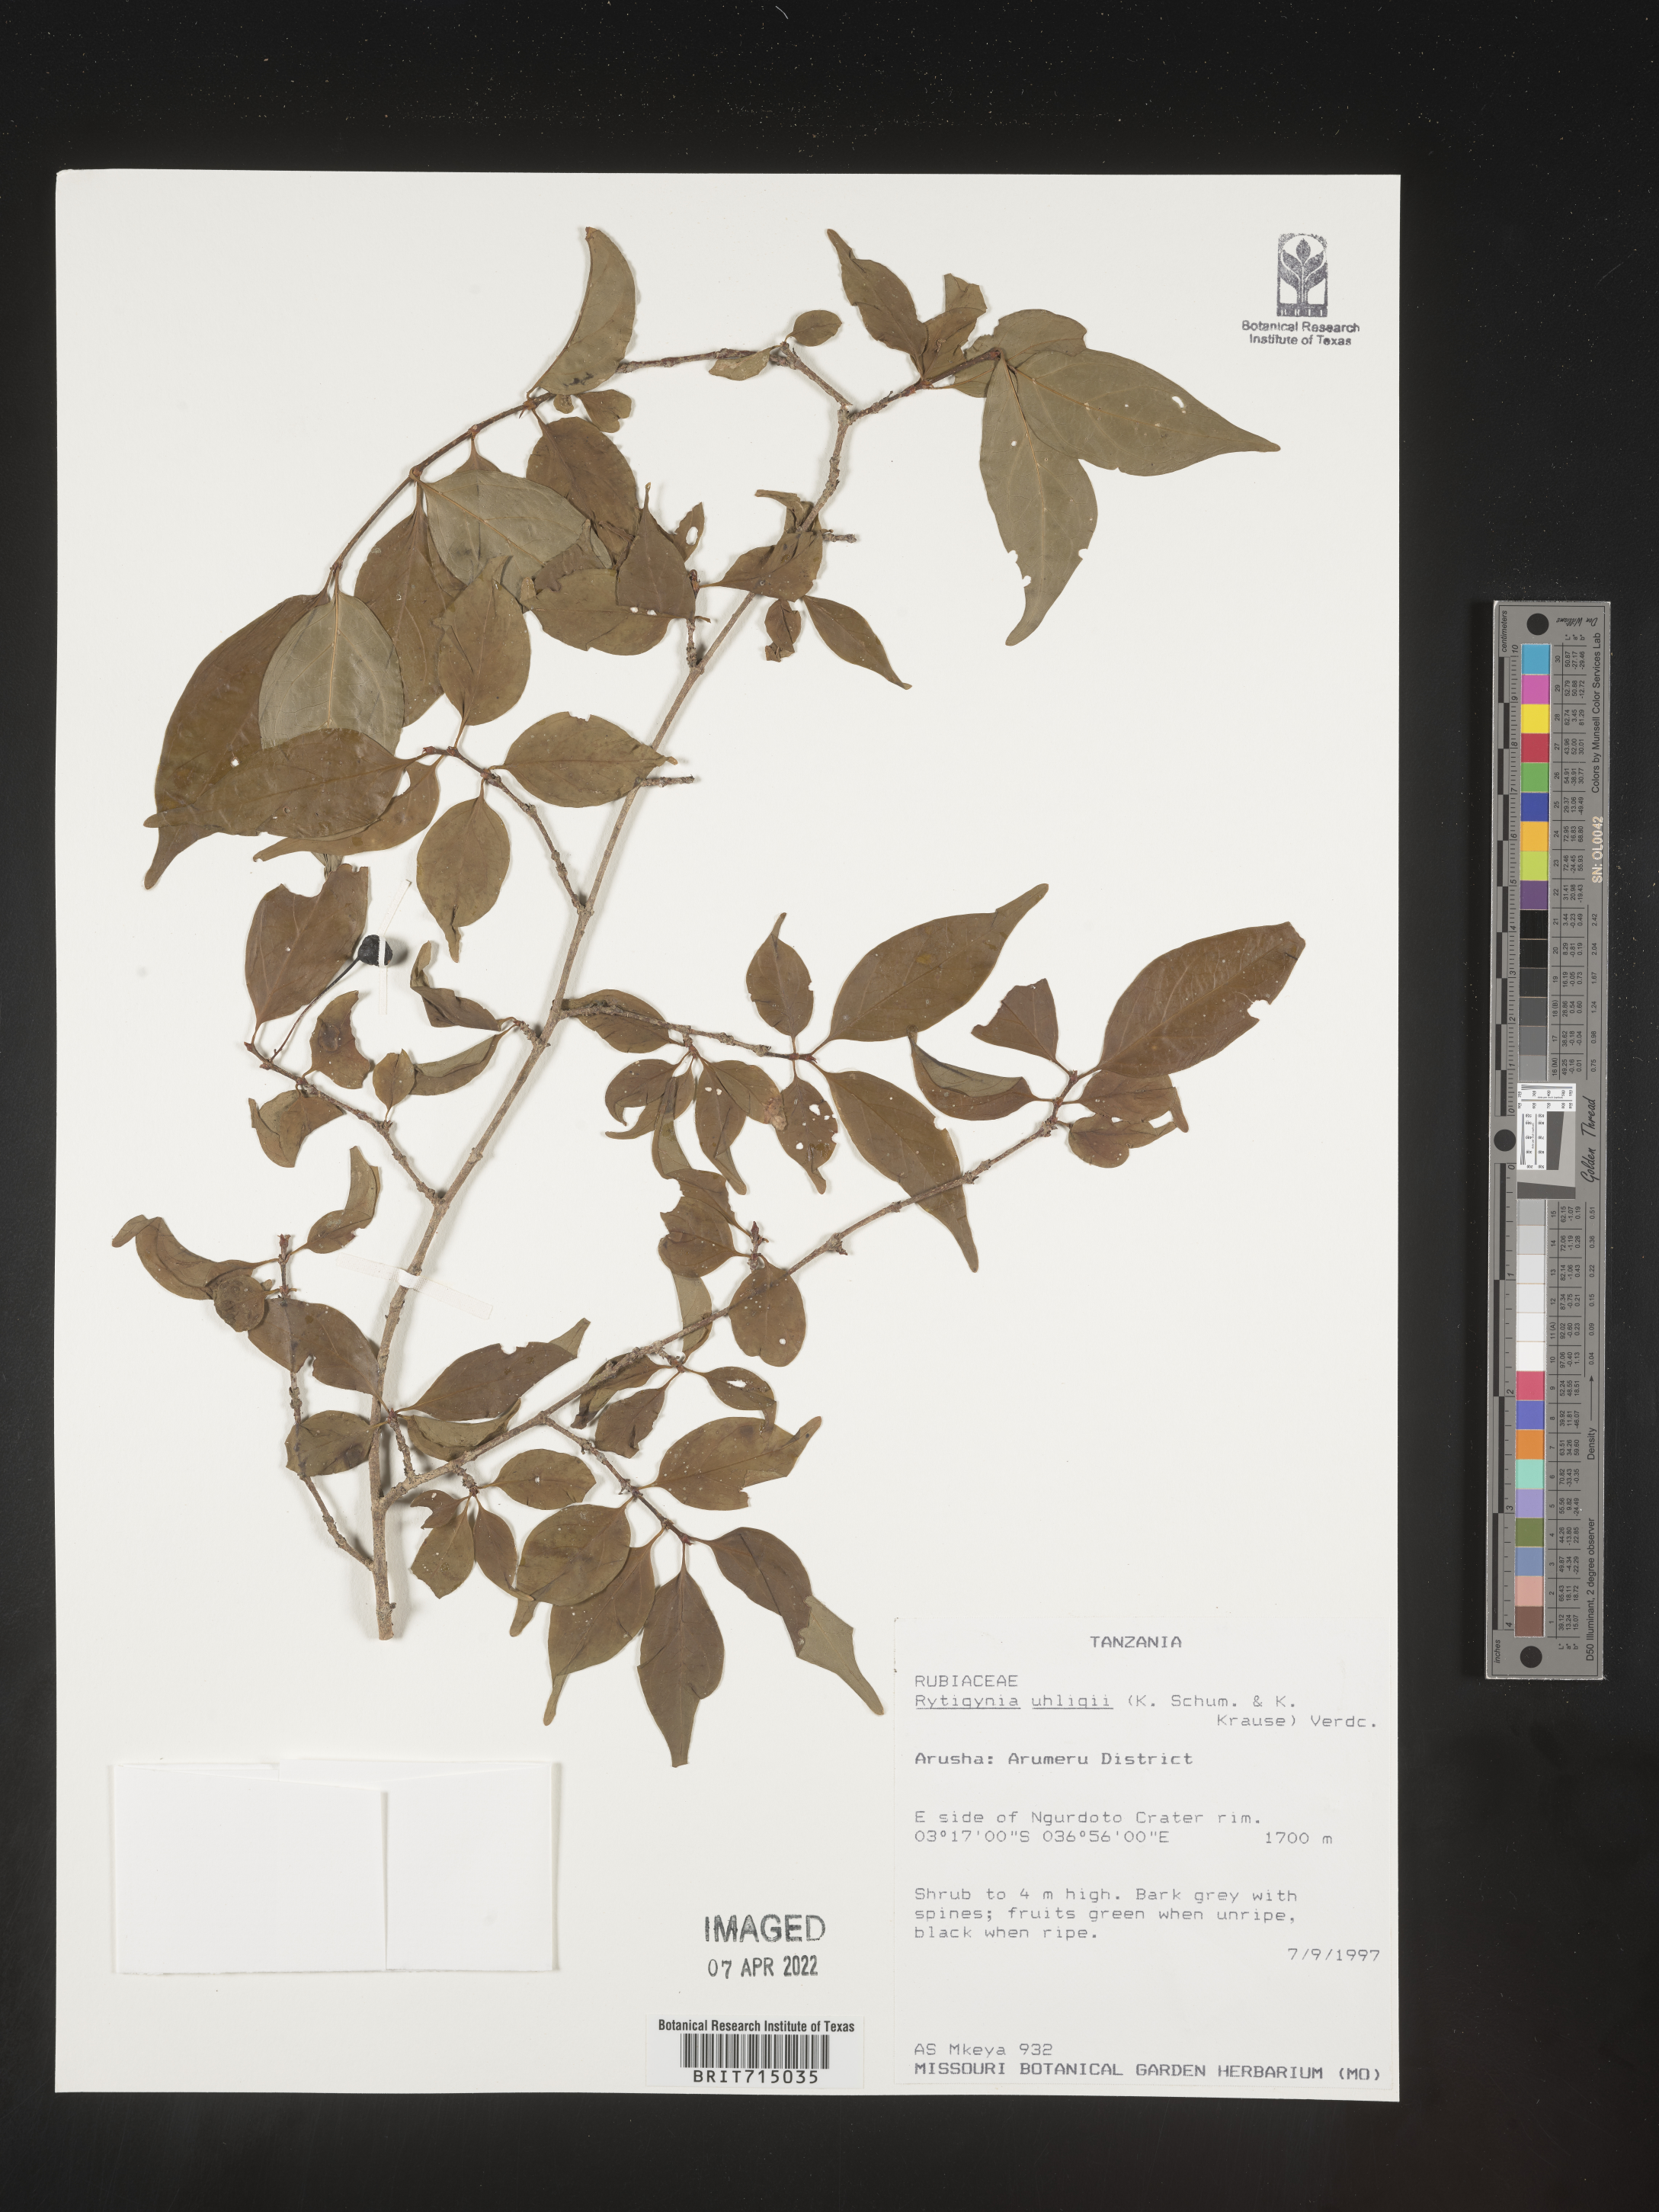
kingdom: Plantae
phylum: Tracheophyta
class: Magnoliopsida
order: Gentianales
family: Rubiaceae
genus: Rytigynia
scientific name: Rytigynia
